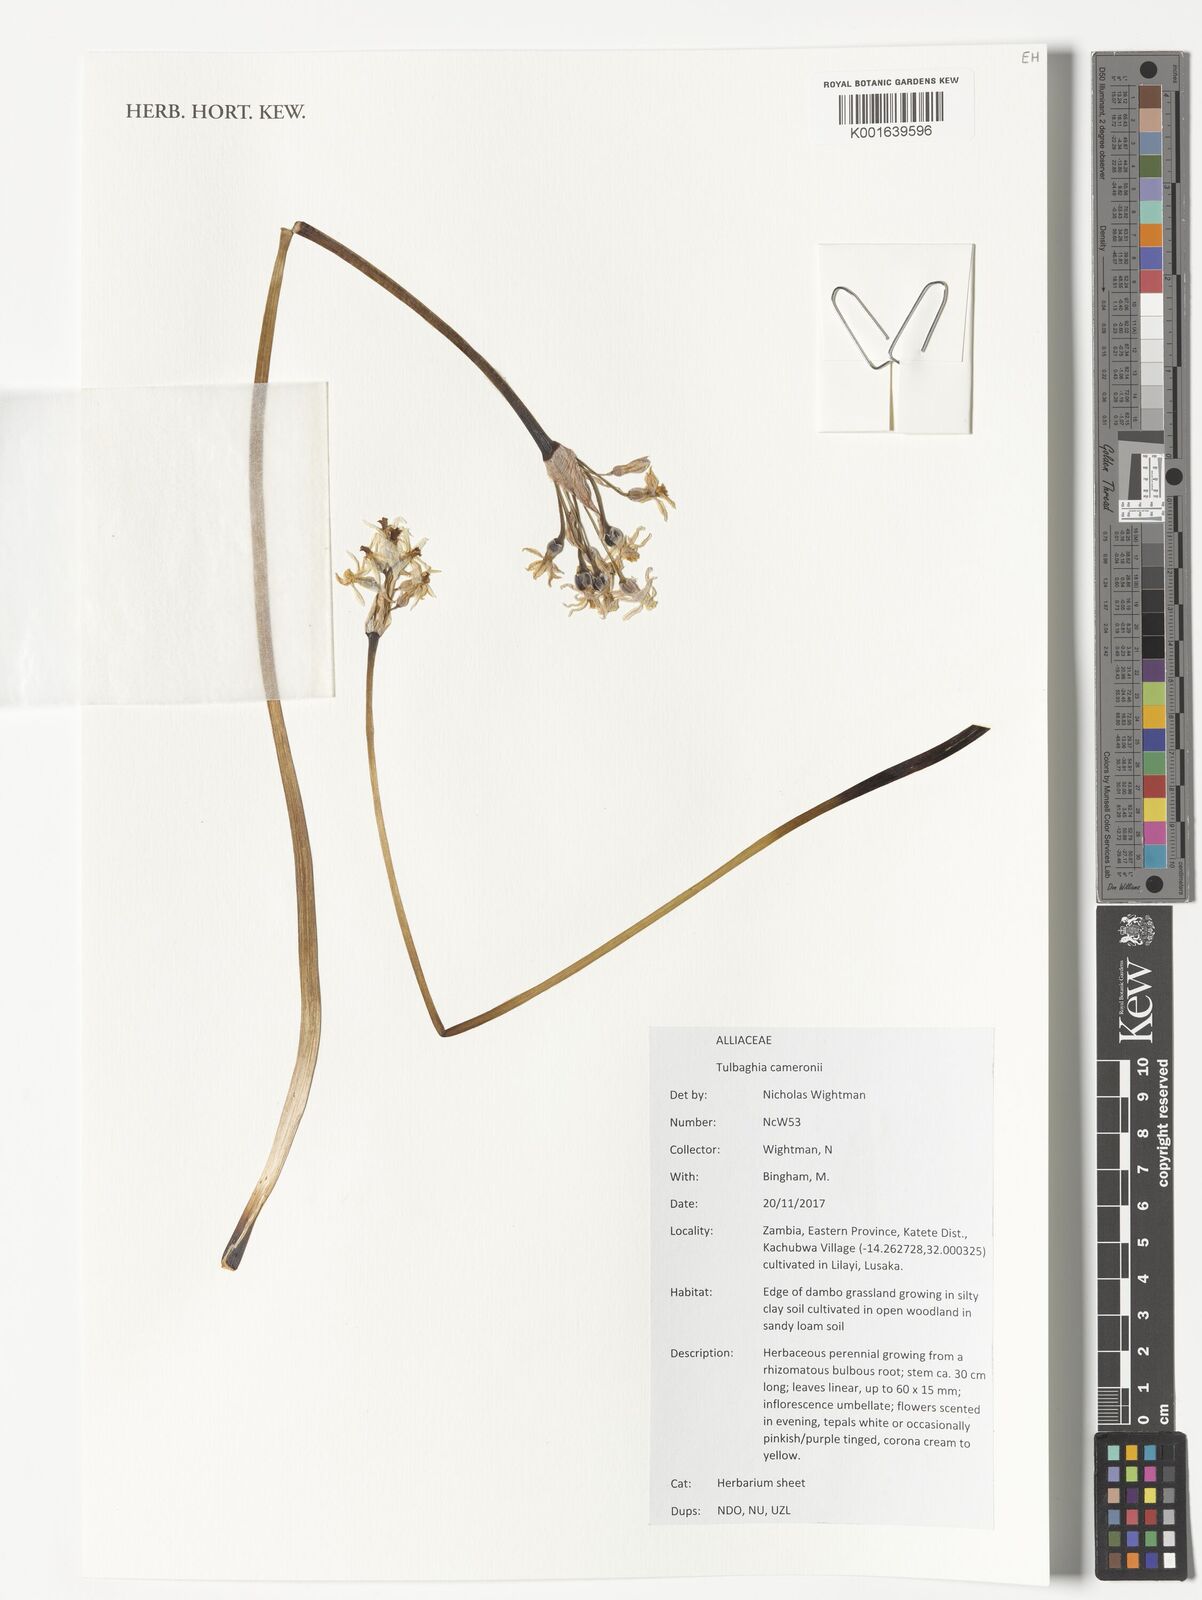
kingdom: Plantae
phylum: Tracheophyta
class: Liliopsida
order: Asparagales
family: Amaryllidaceae
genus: Tulbaghia
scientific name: Tulbaghia cameronii
